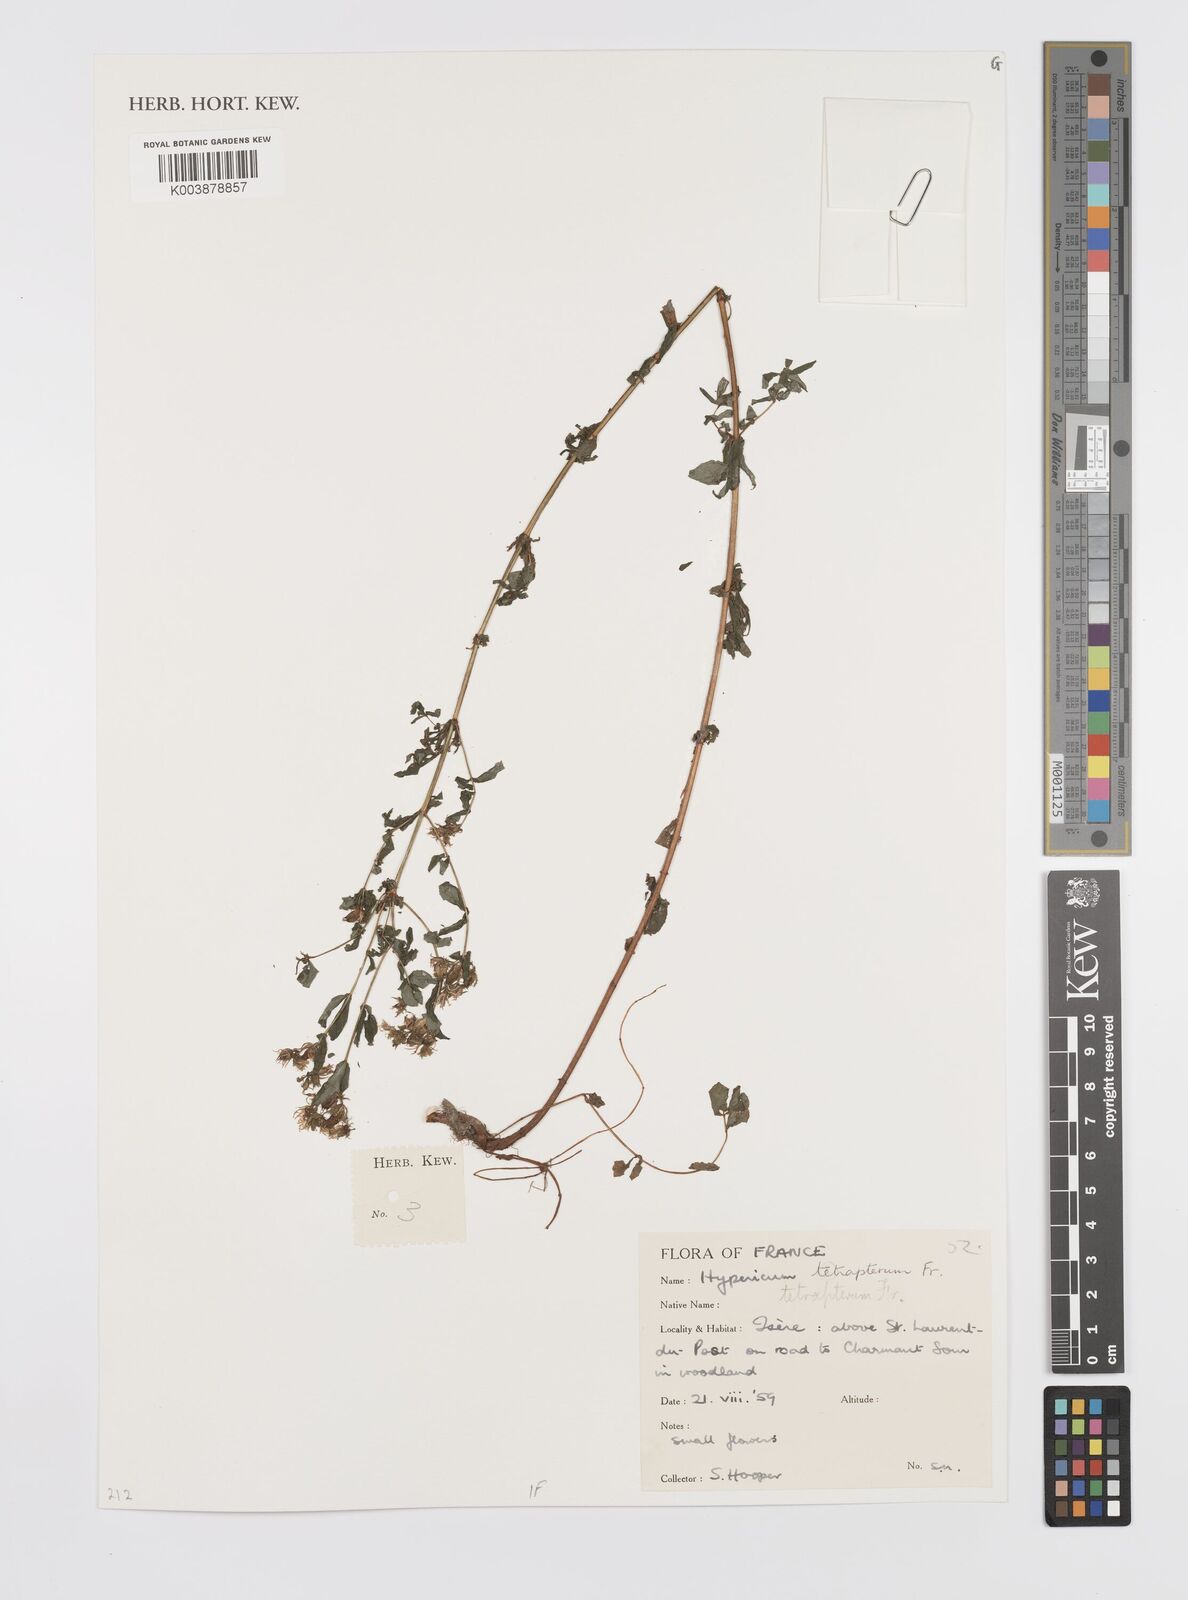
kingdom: Plantae
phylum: Tracheophyta
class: Magnoliopsida
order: Malpighiales
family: Hypericaceae
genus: Hypericum
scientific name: Hypericum tetrapterum
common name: Square-stalked st. john's-wort
